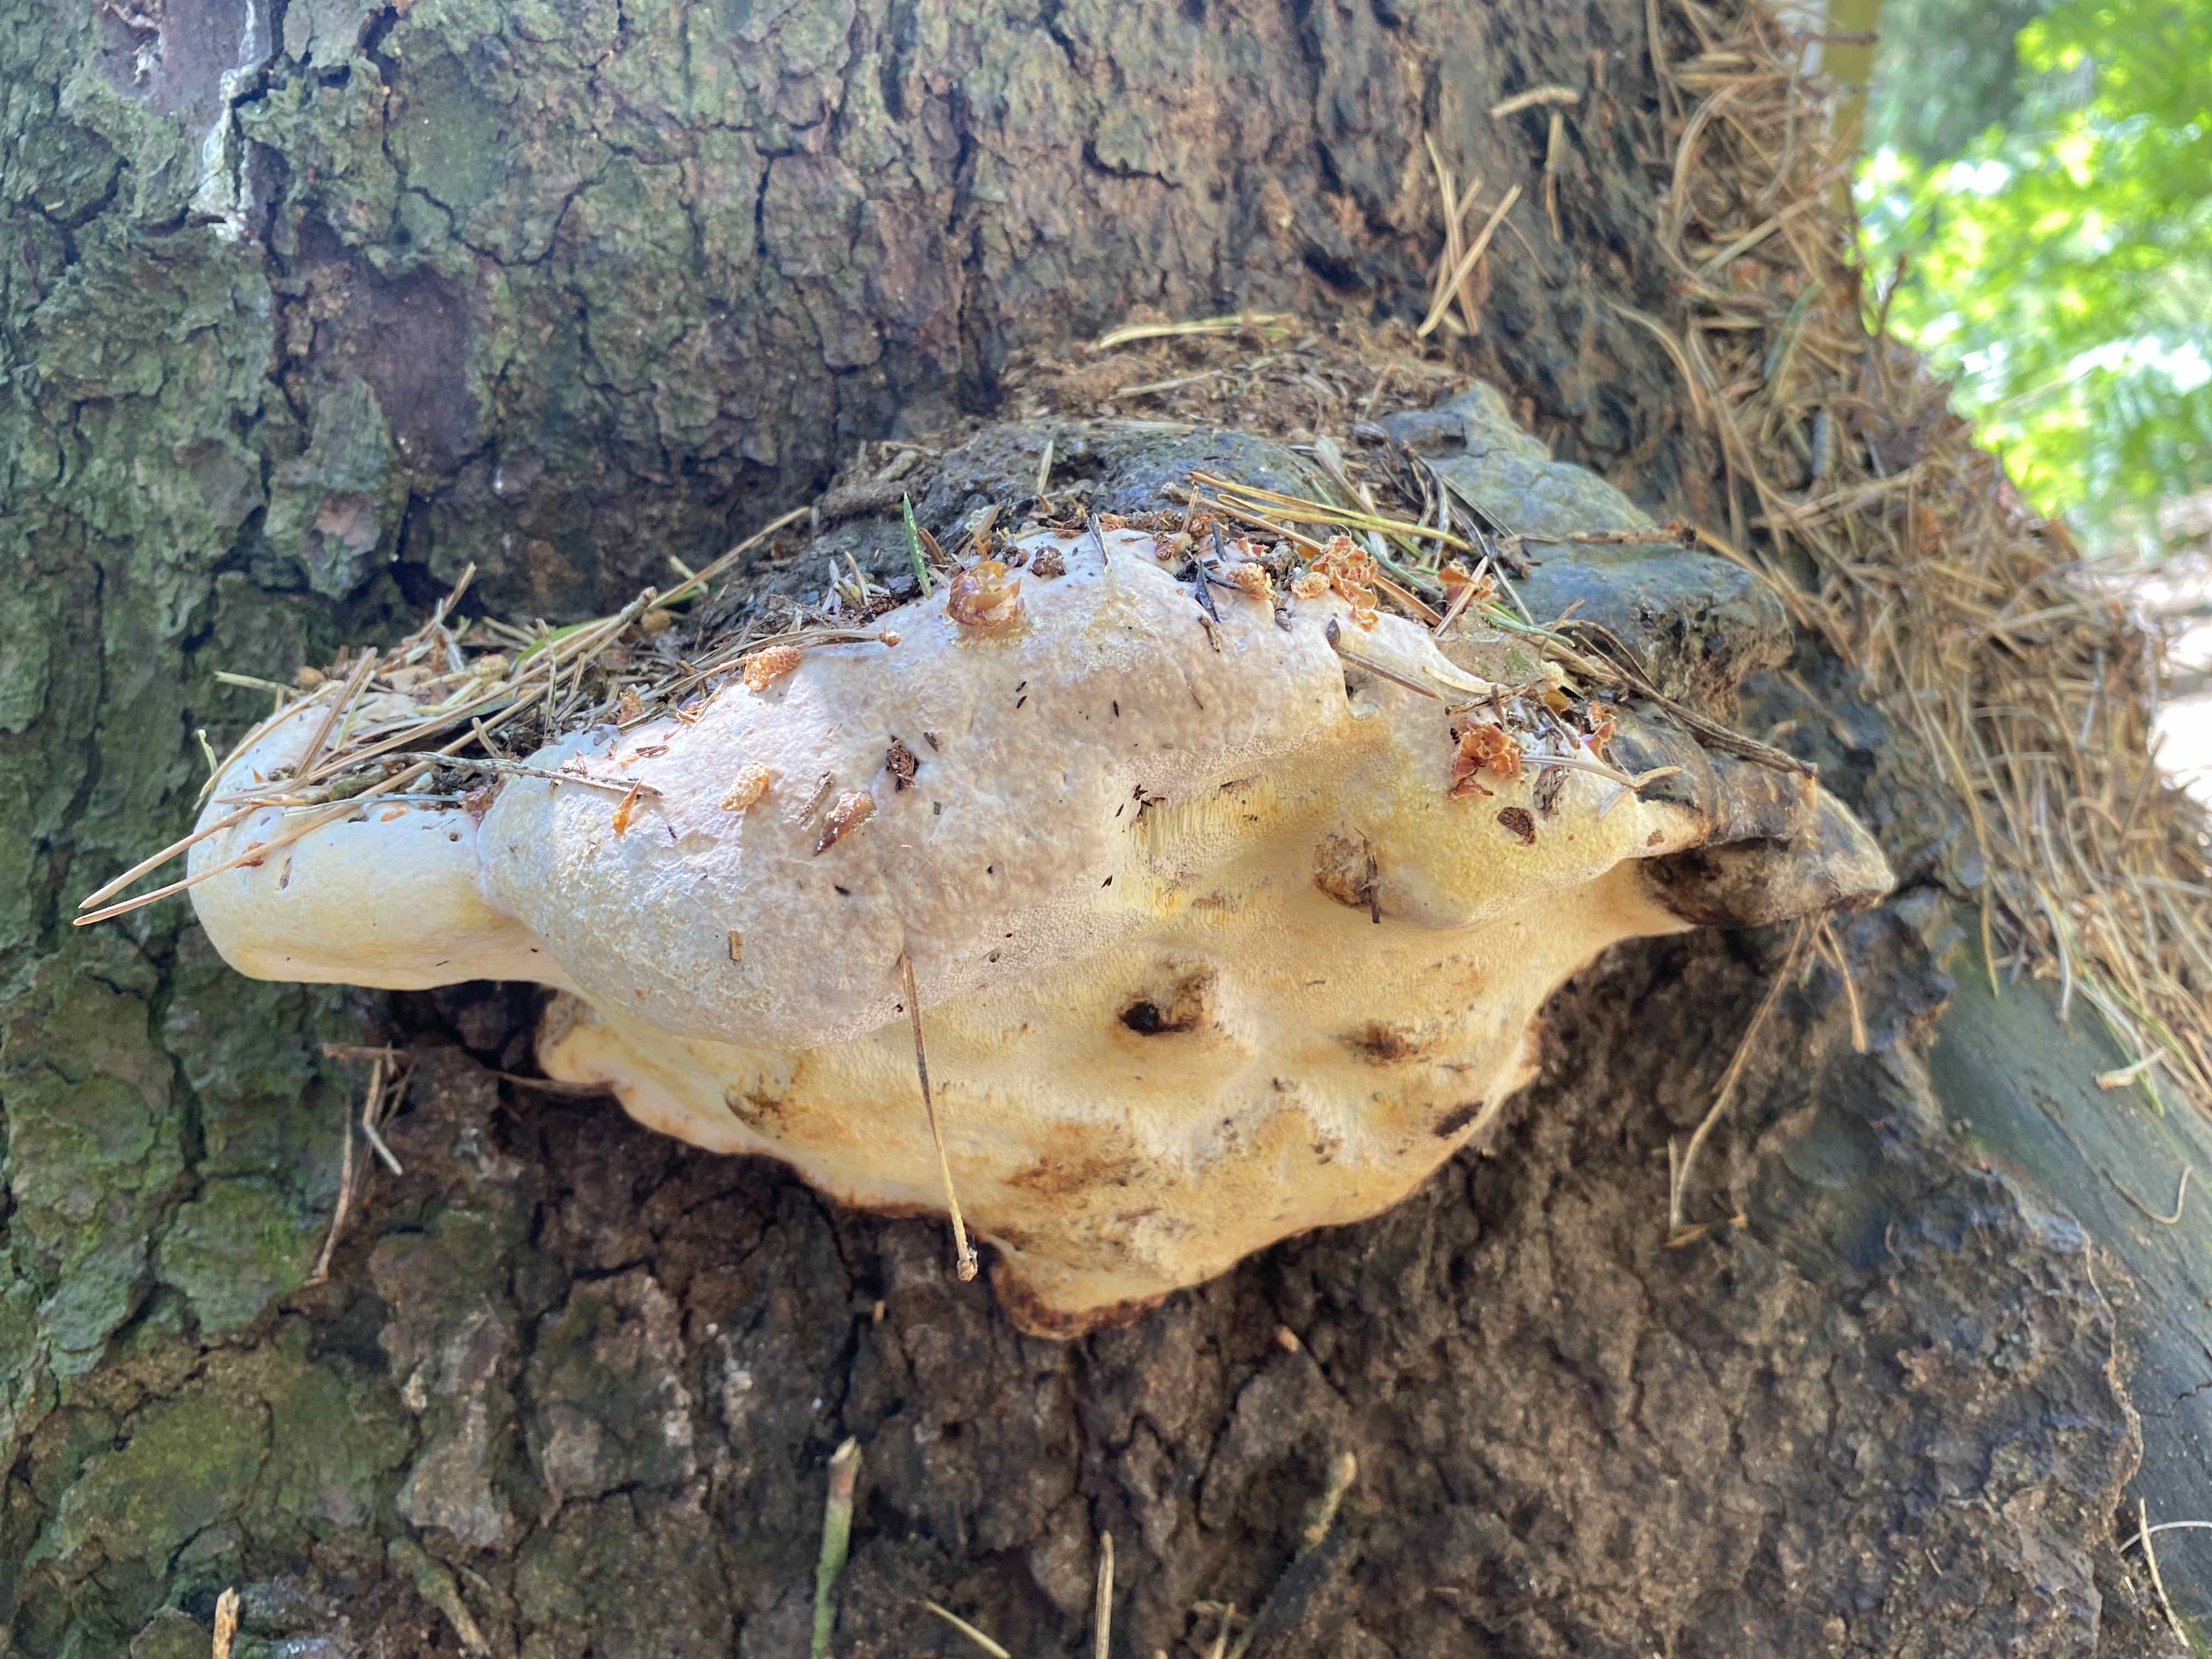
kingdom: Fungi
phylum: Basidiomycota
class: Agaricomycetes
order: Polyporales
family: Fomitopsidaceae
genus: Fomitopsis
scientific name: Fomitopsis pinicola
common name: randbæltet hovporesvamp
